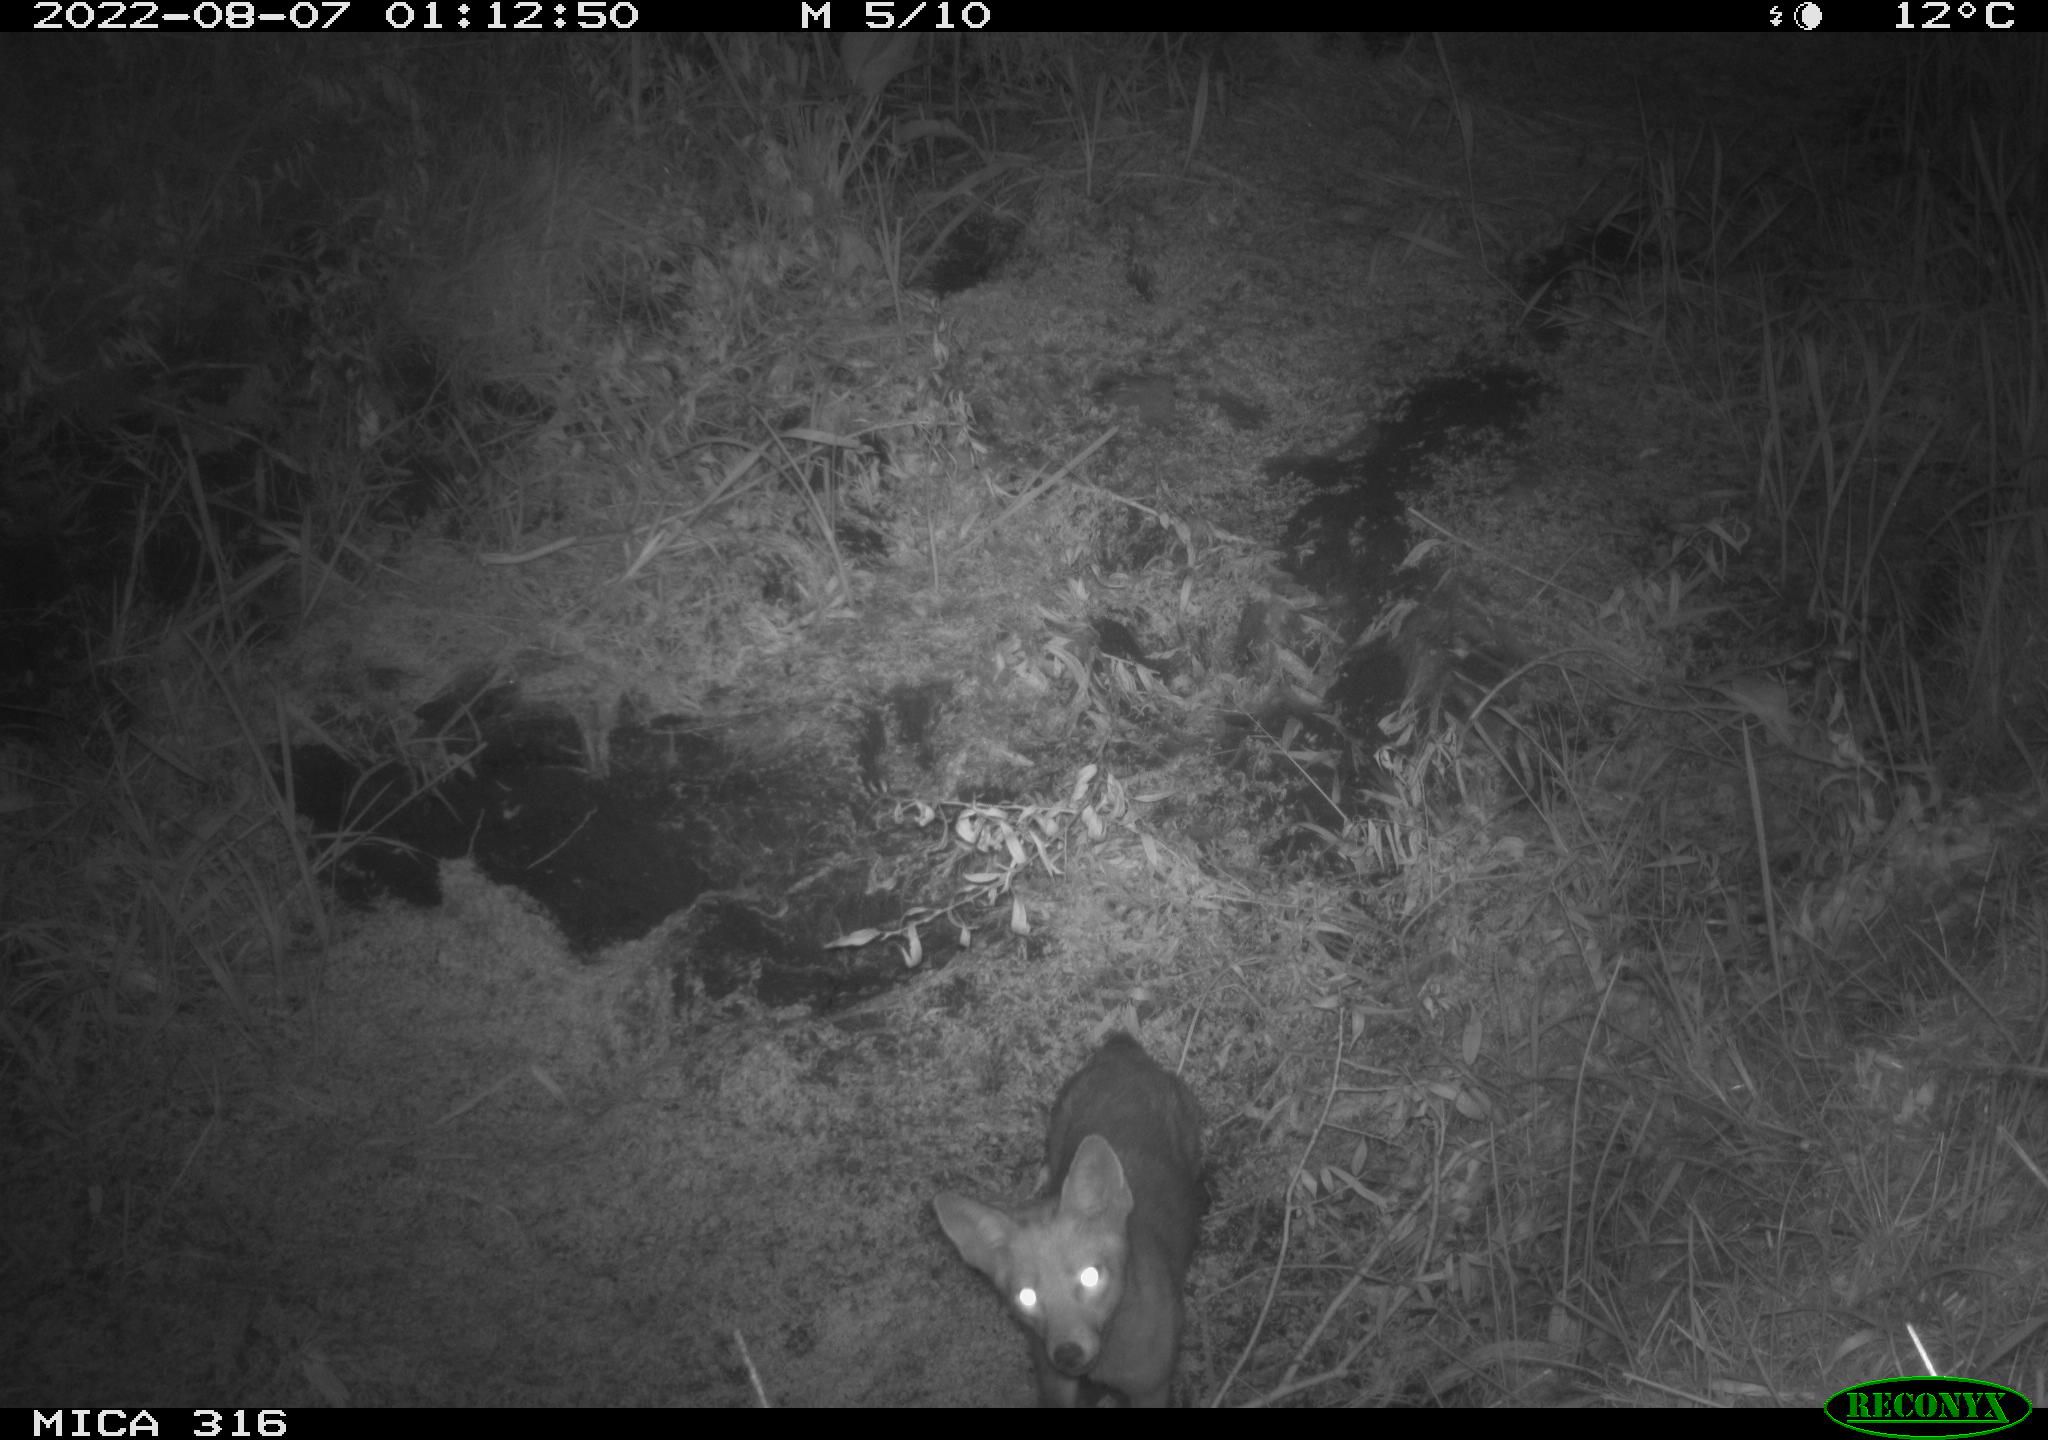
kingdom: Animalia
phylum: Chordata
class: Mammalia
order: Carnivora
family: Canidae
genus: Vulpes
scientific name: Vulpes vulpes
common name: Red fox
